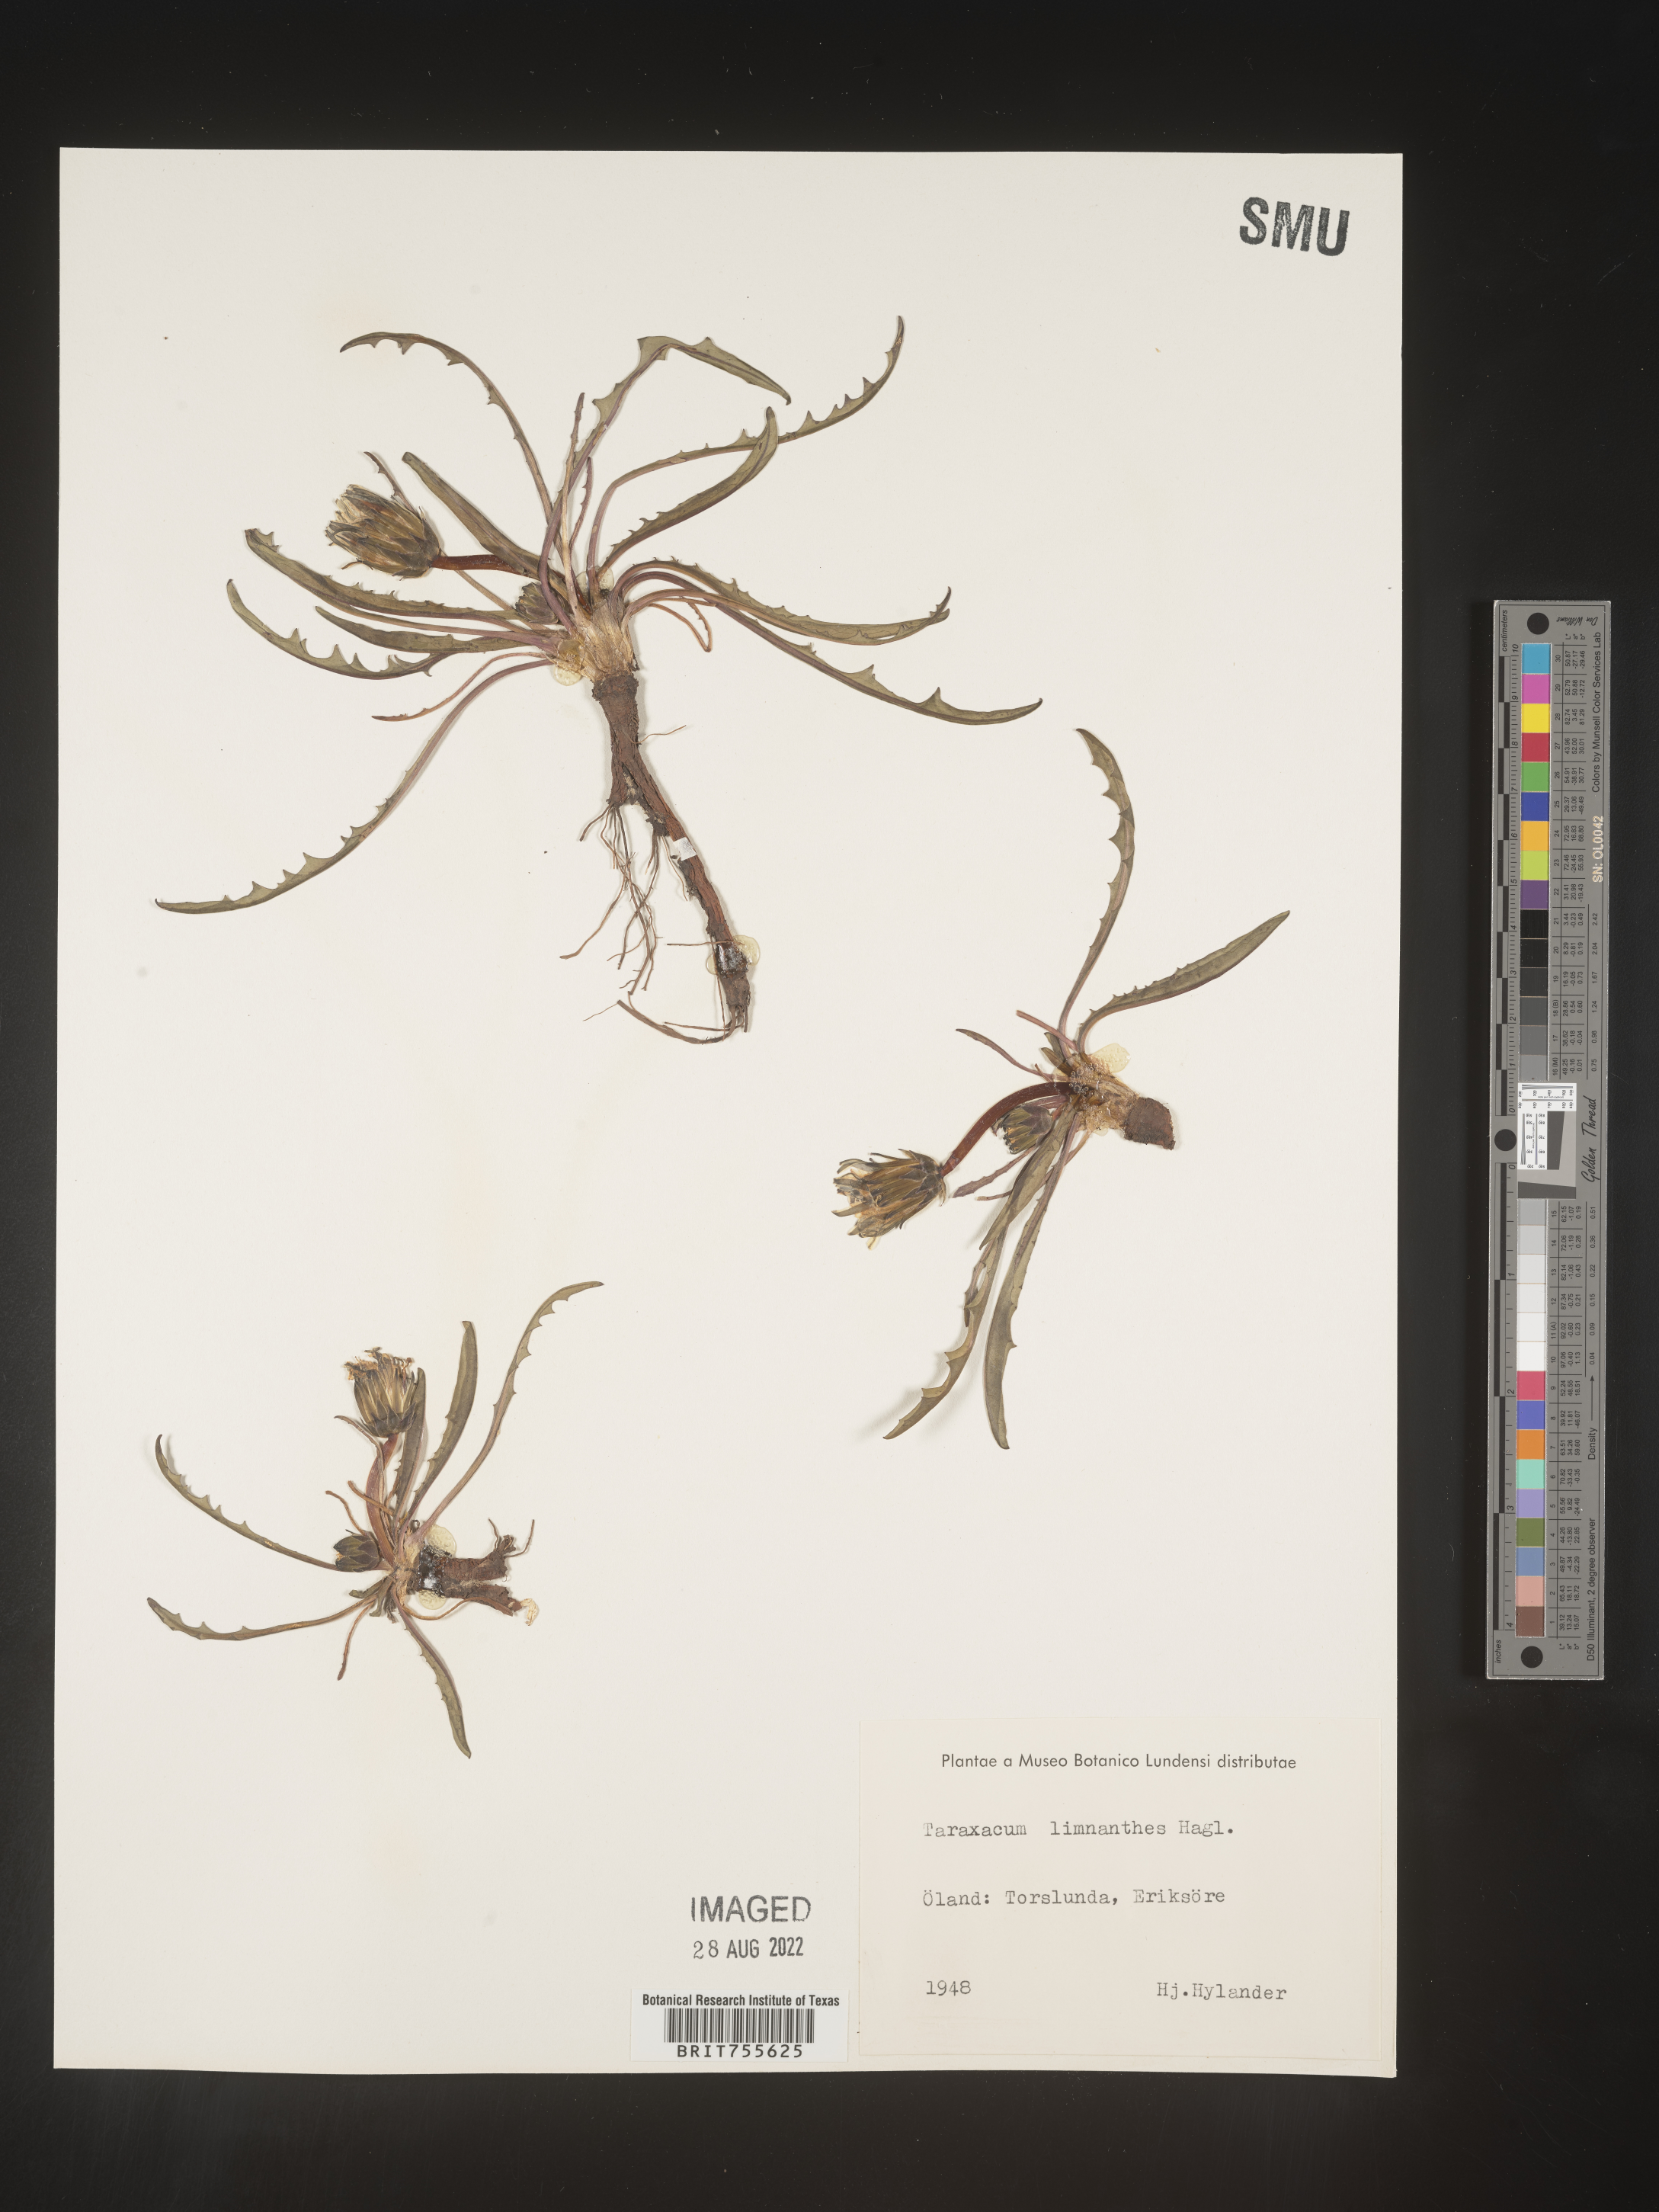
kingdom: Plantae
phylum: Tracheophyta
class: Magnoliopsida
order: Asterales
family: Asteraceae
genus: Taraxacum
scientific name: Taraxacum
